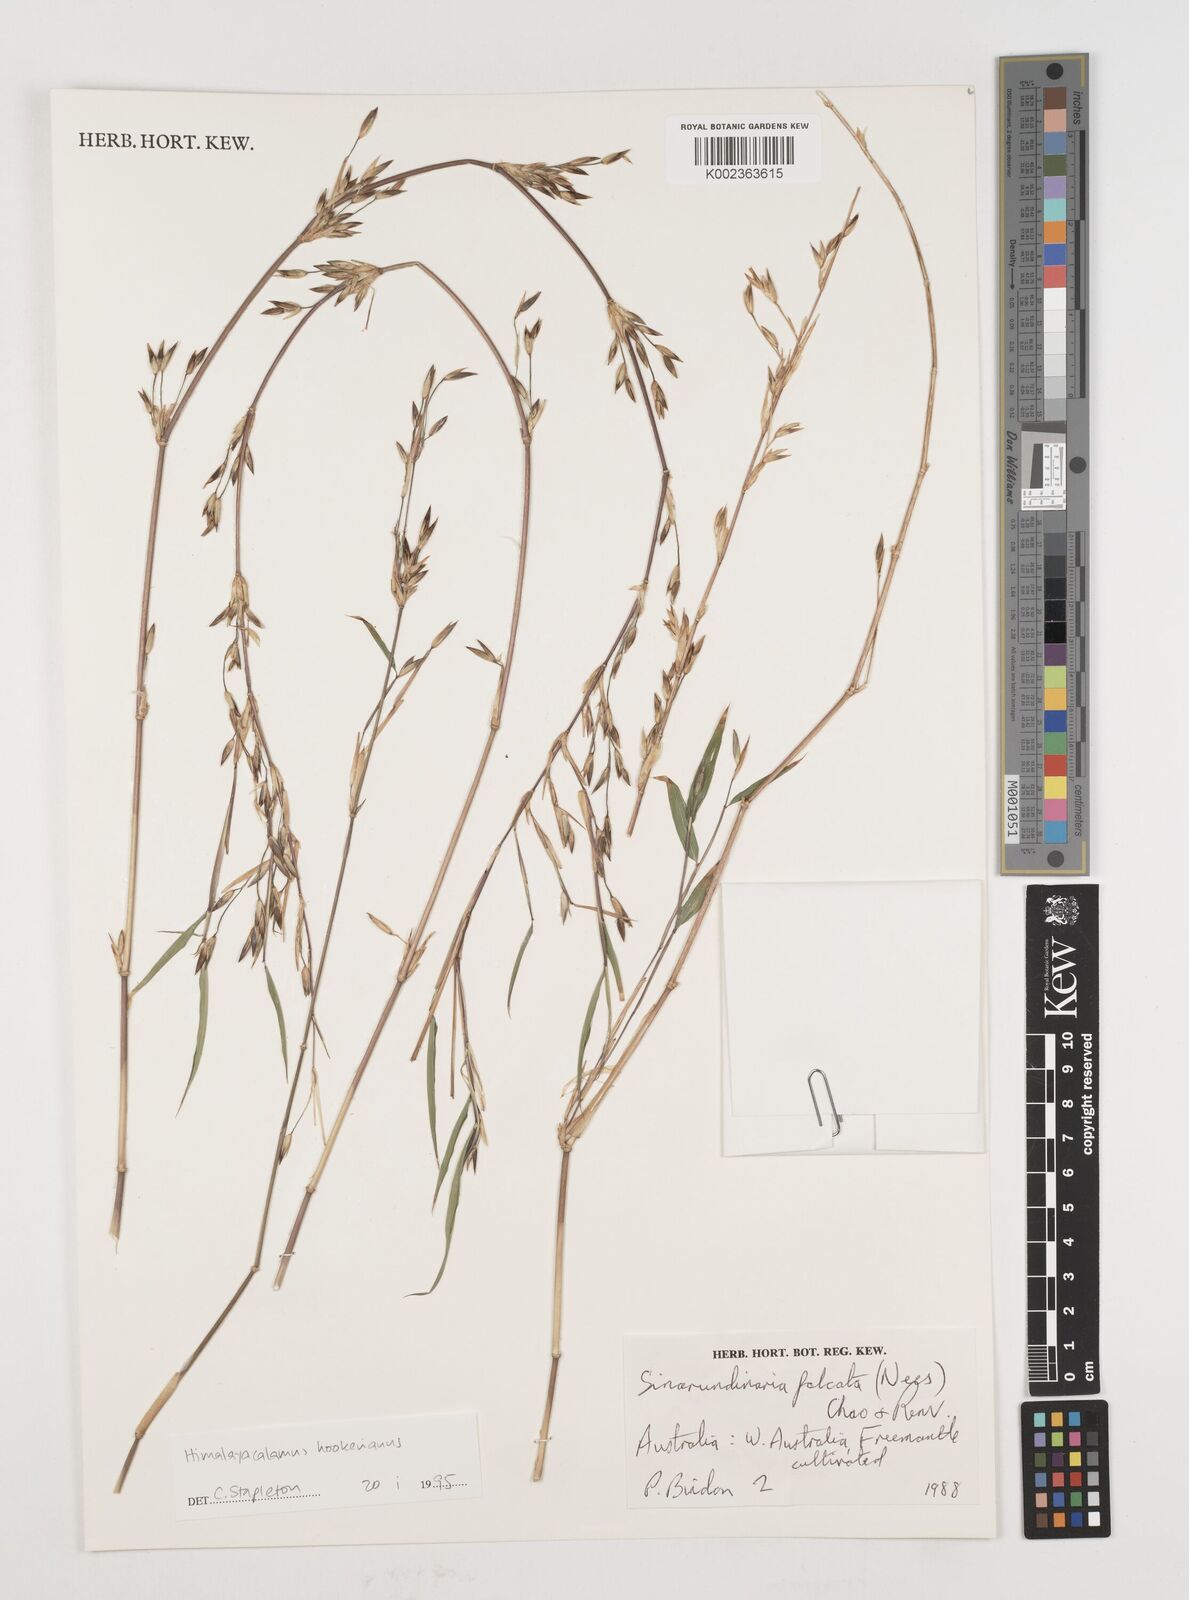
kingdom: Plantae
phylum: Tracheophyta
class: Liliopsida
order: Poales
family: Poaceae
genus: Himalayacalamus
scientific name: Himalayacalamus hookerianus
